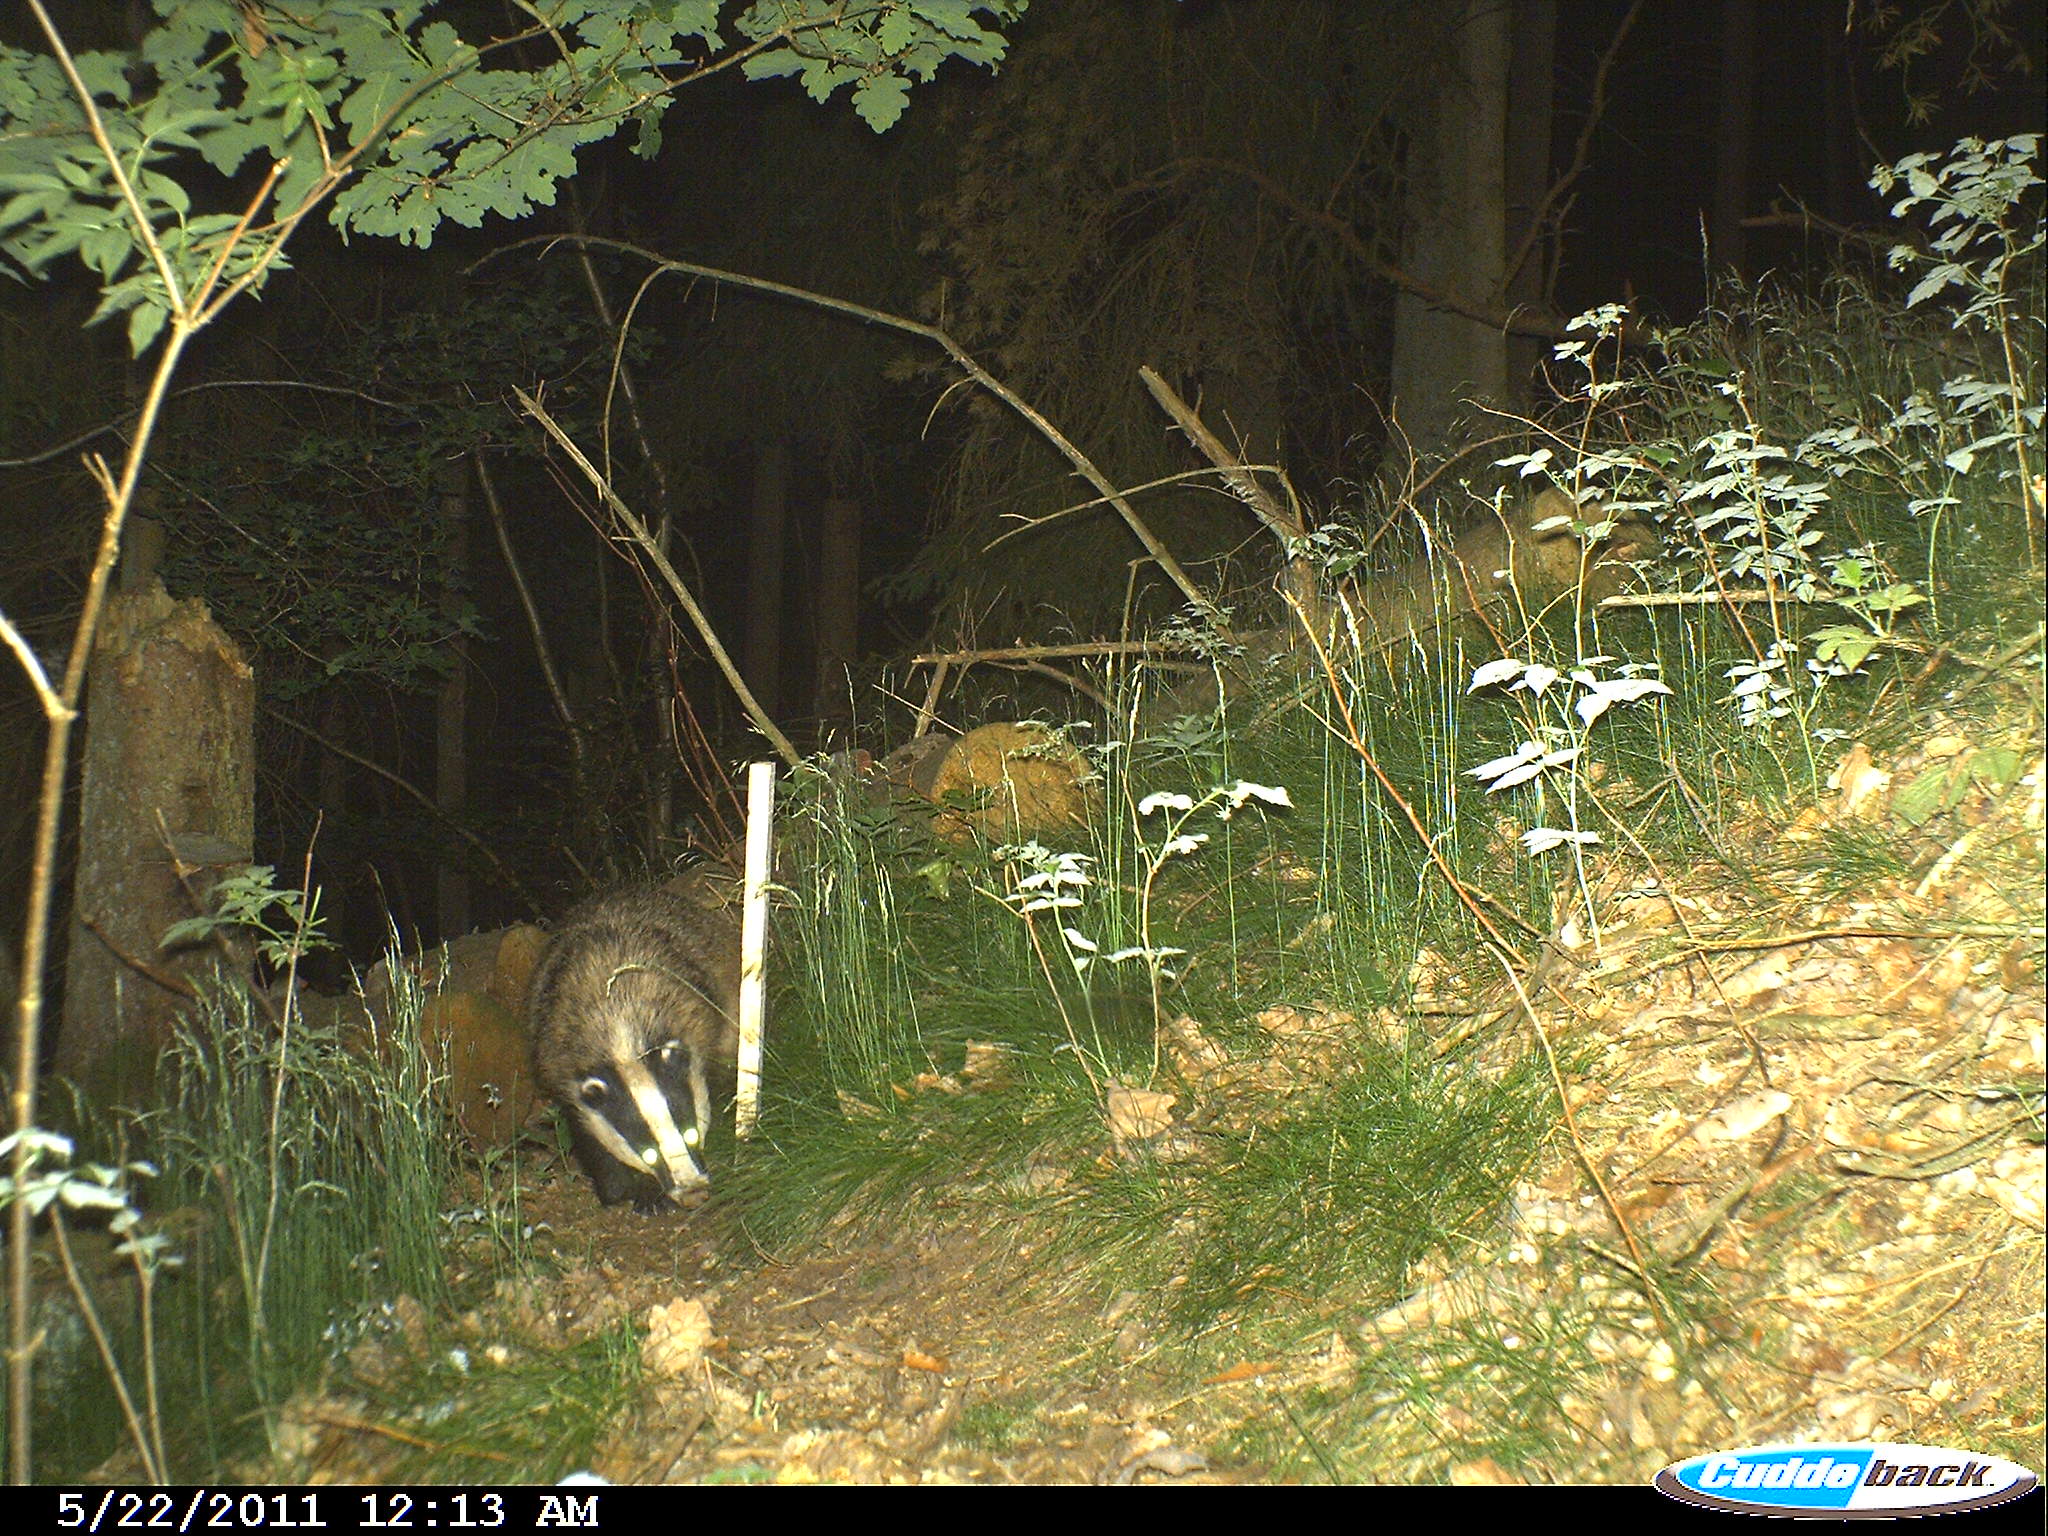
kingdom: Animalia
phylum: Chordata
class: Mammalia
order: Carnivora
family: Mustelidae
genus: Meles
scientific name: Meles meles
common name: Eurasian badger
